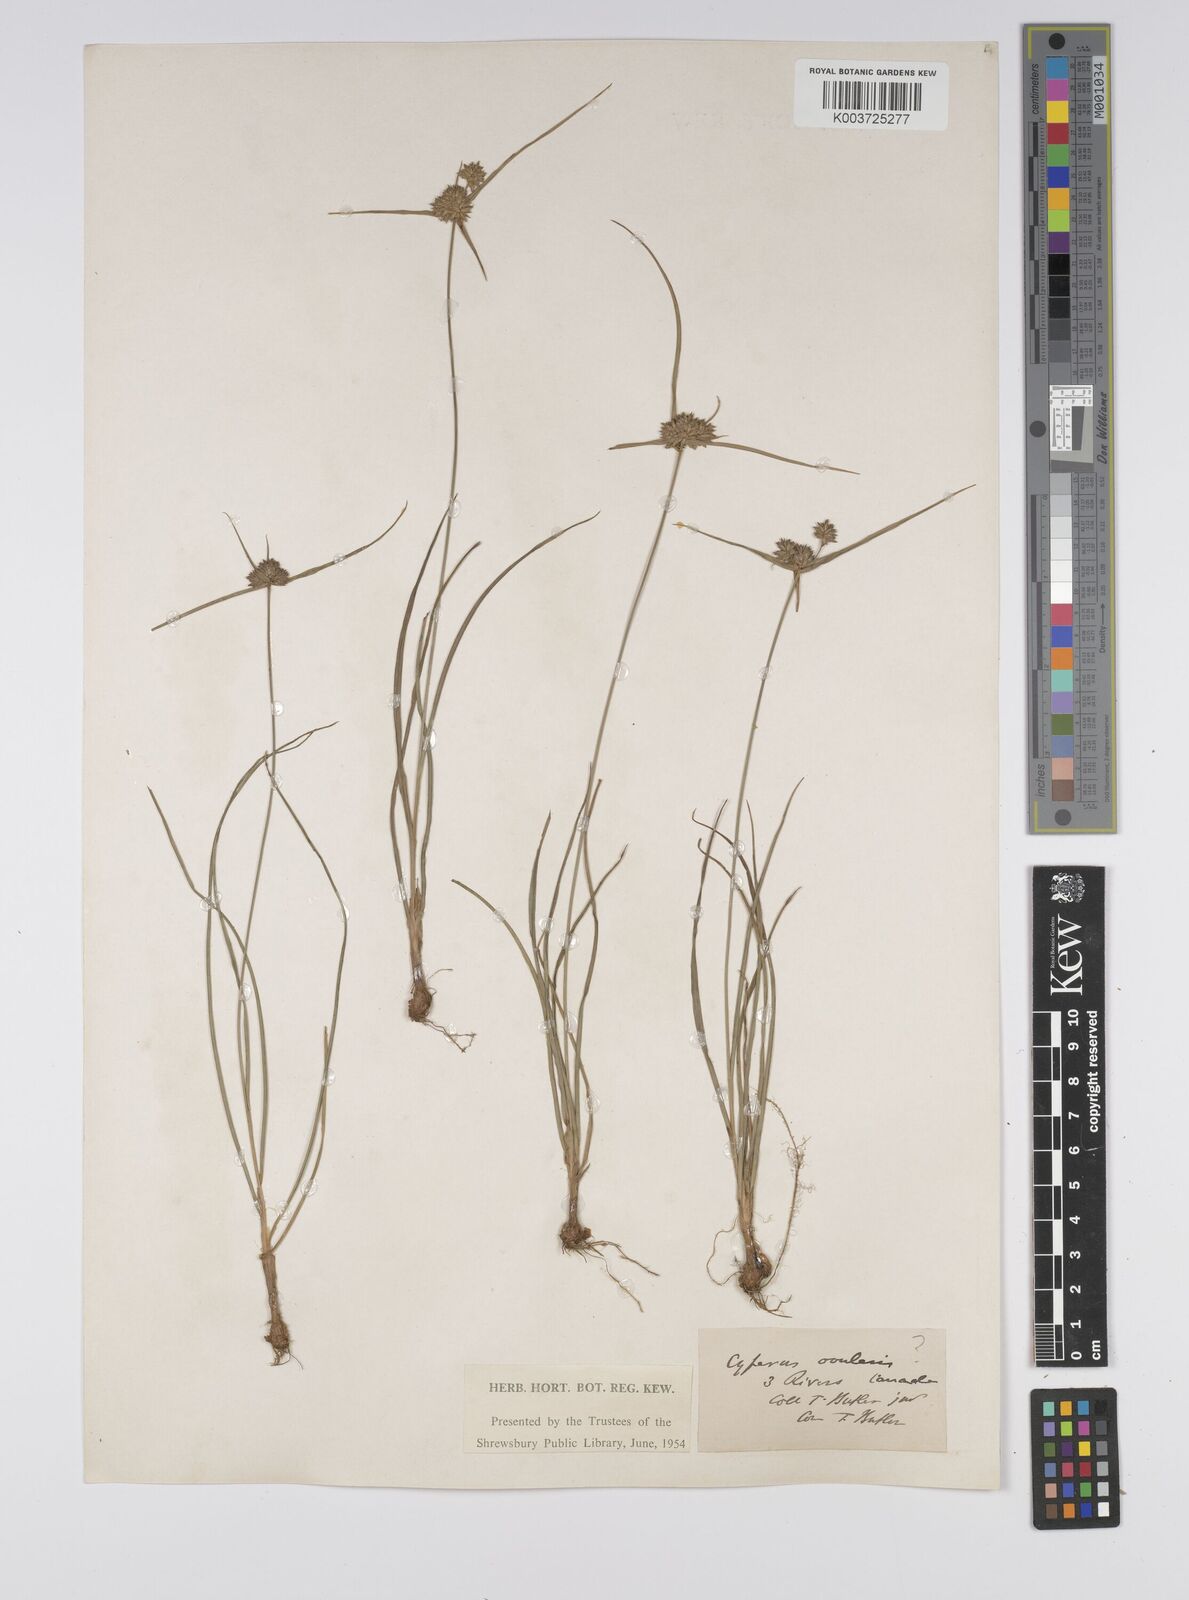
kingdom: Plantae
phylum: Tracheophyta
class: Liliopsida
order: Poales
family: Cyperaceae
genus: Cyperus
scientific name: Cyperus lupulinus
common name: Great plains flatsedge
